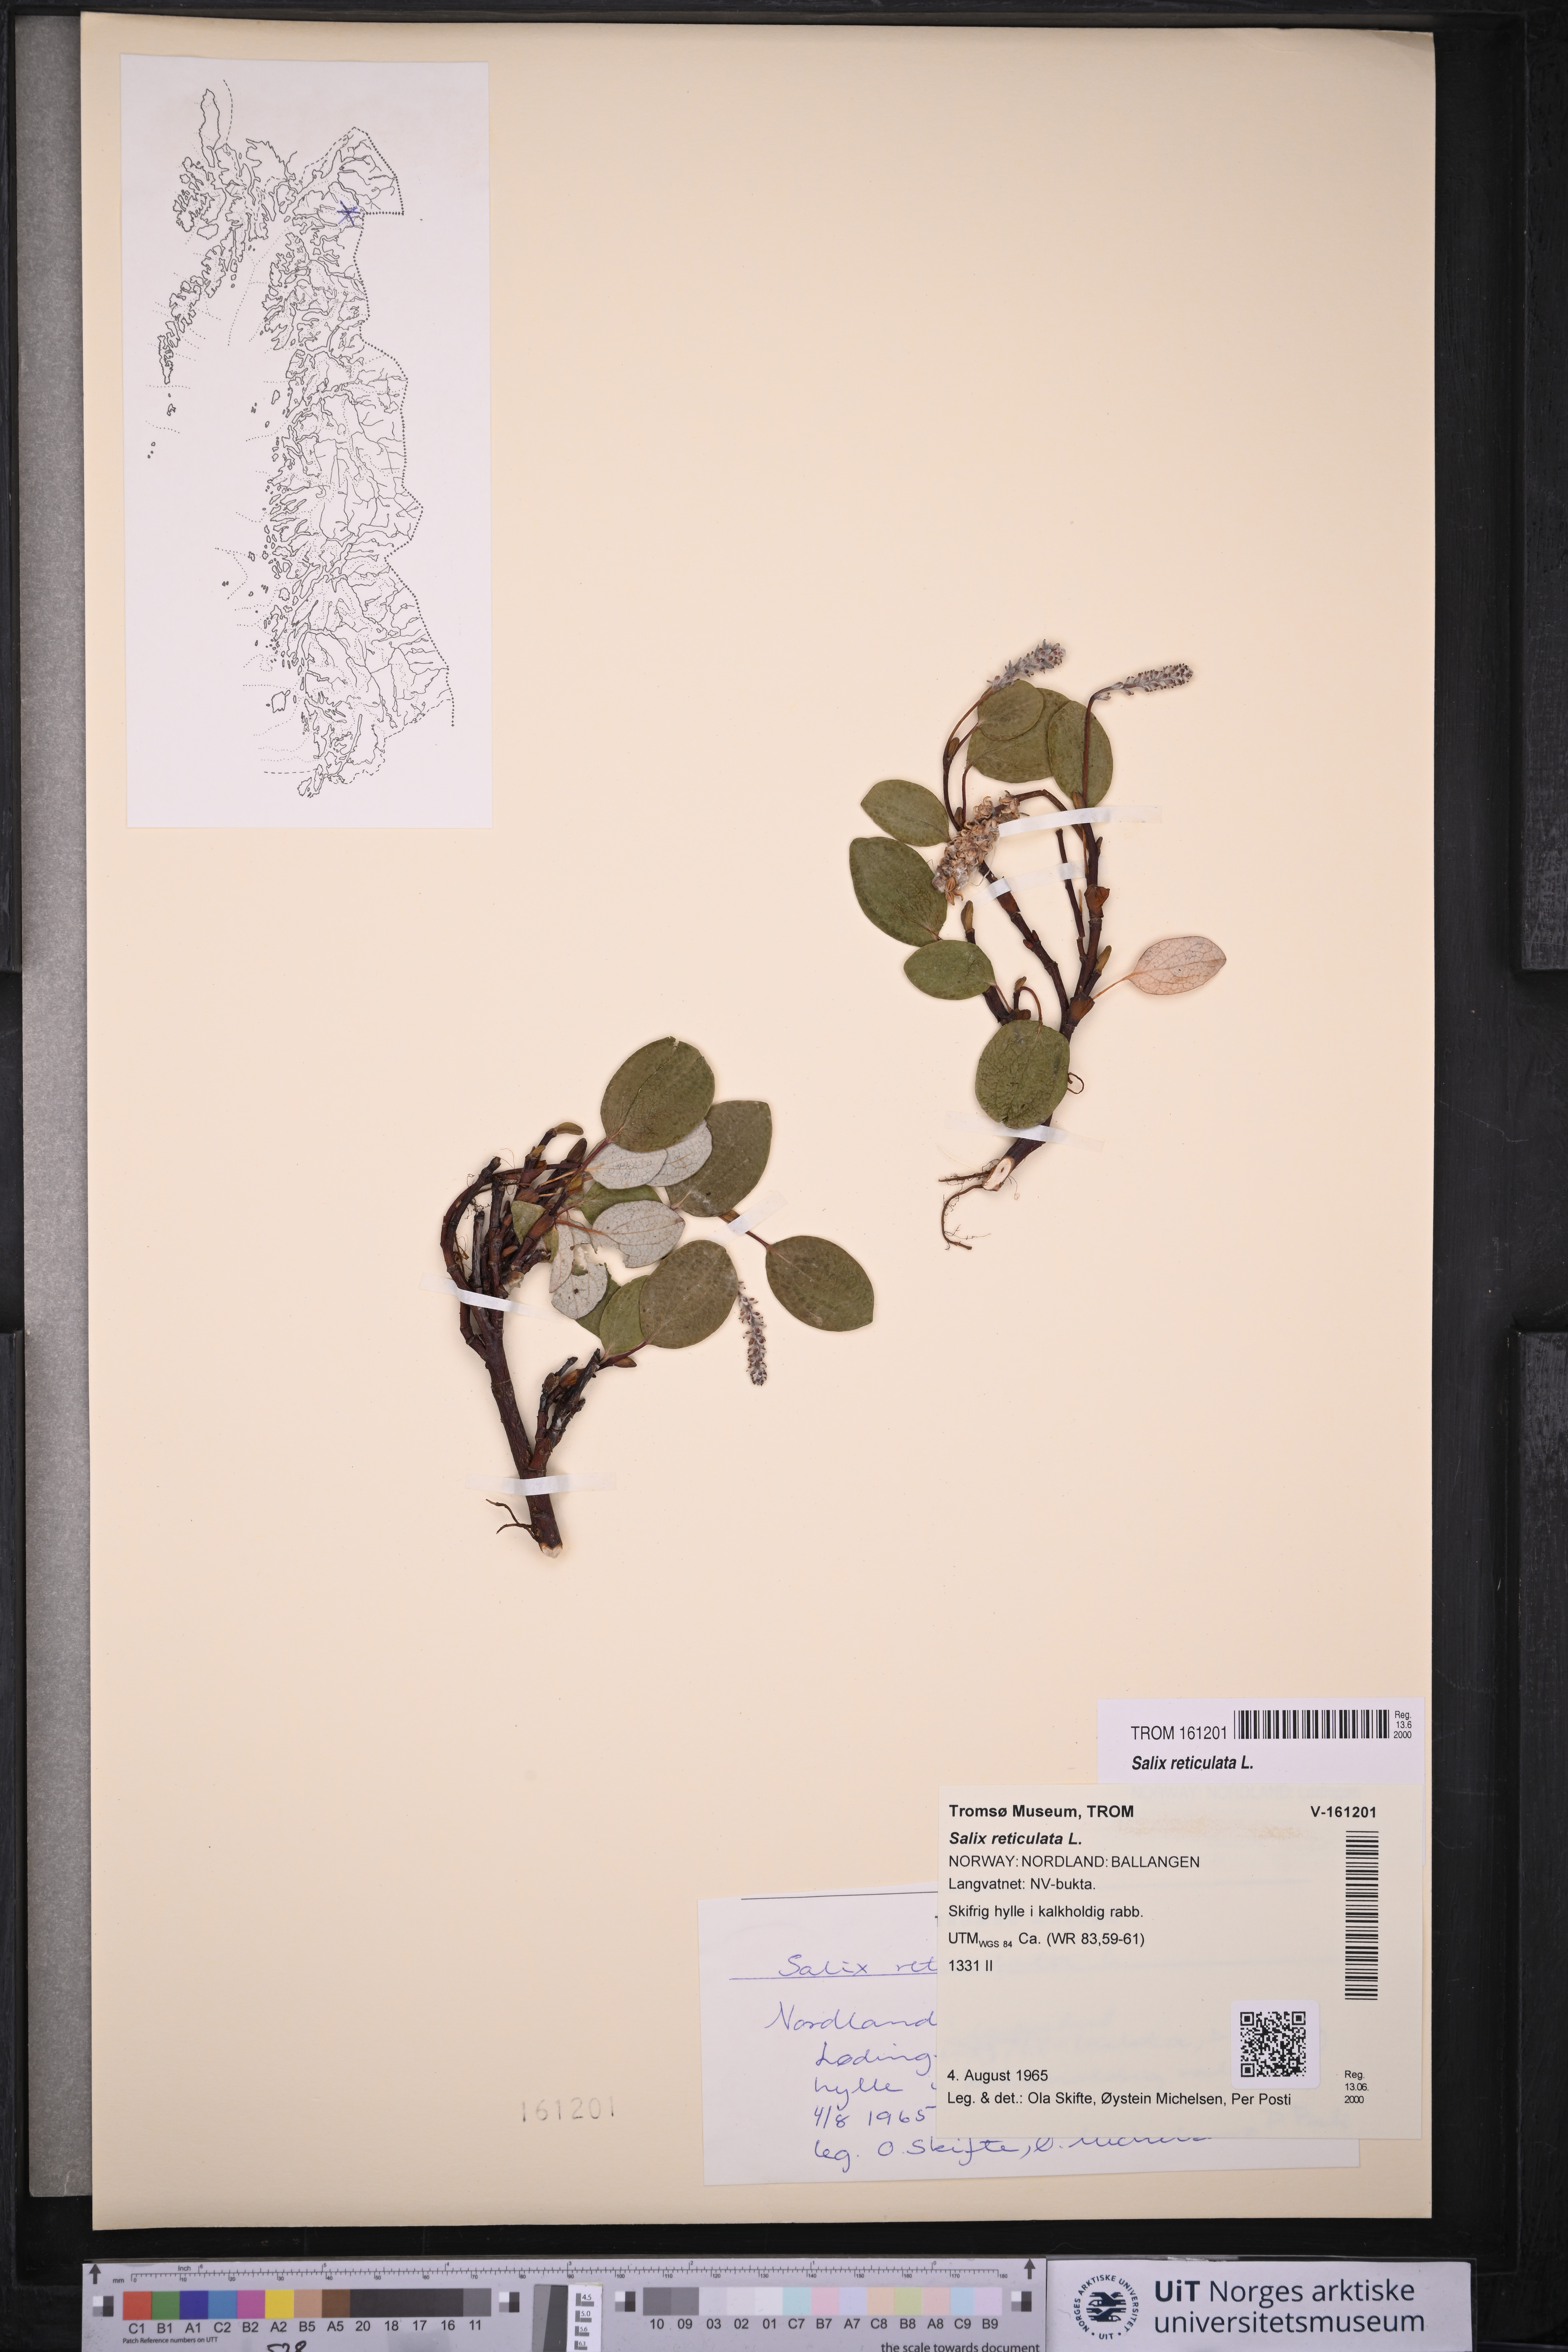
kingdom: Plantae
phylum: Tracheophyta
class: Magnoliopsida
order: Malpighiales
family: Salicaceae
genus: Salix
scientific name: Salix reticulata
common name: Net-leaved willow
